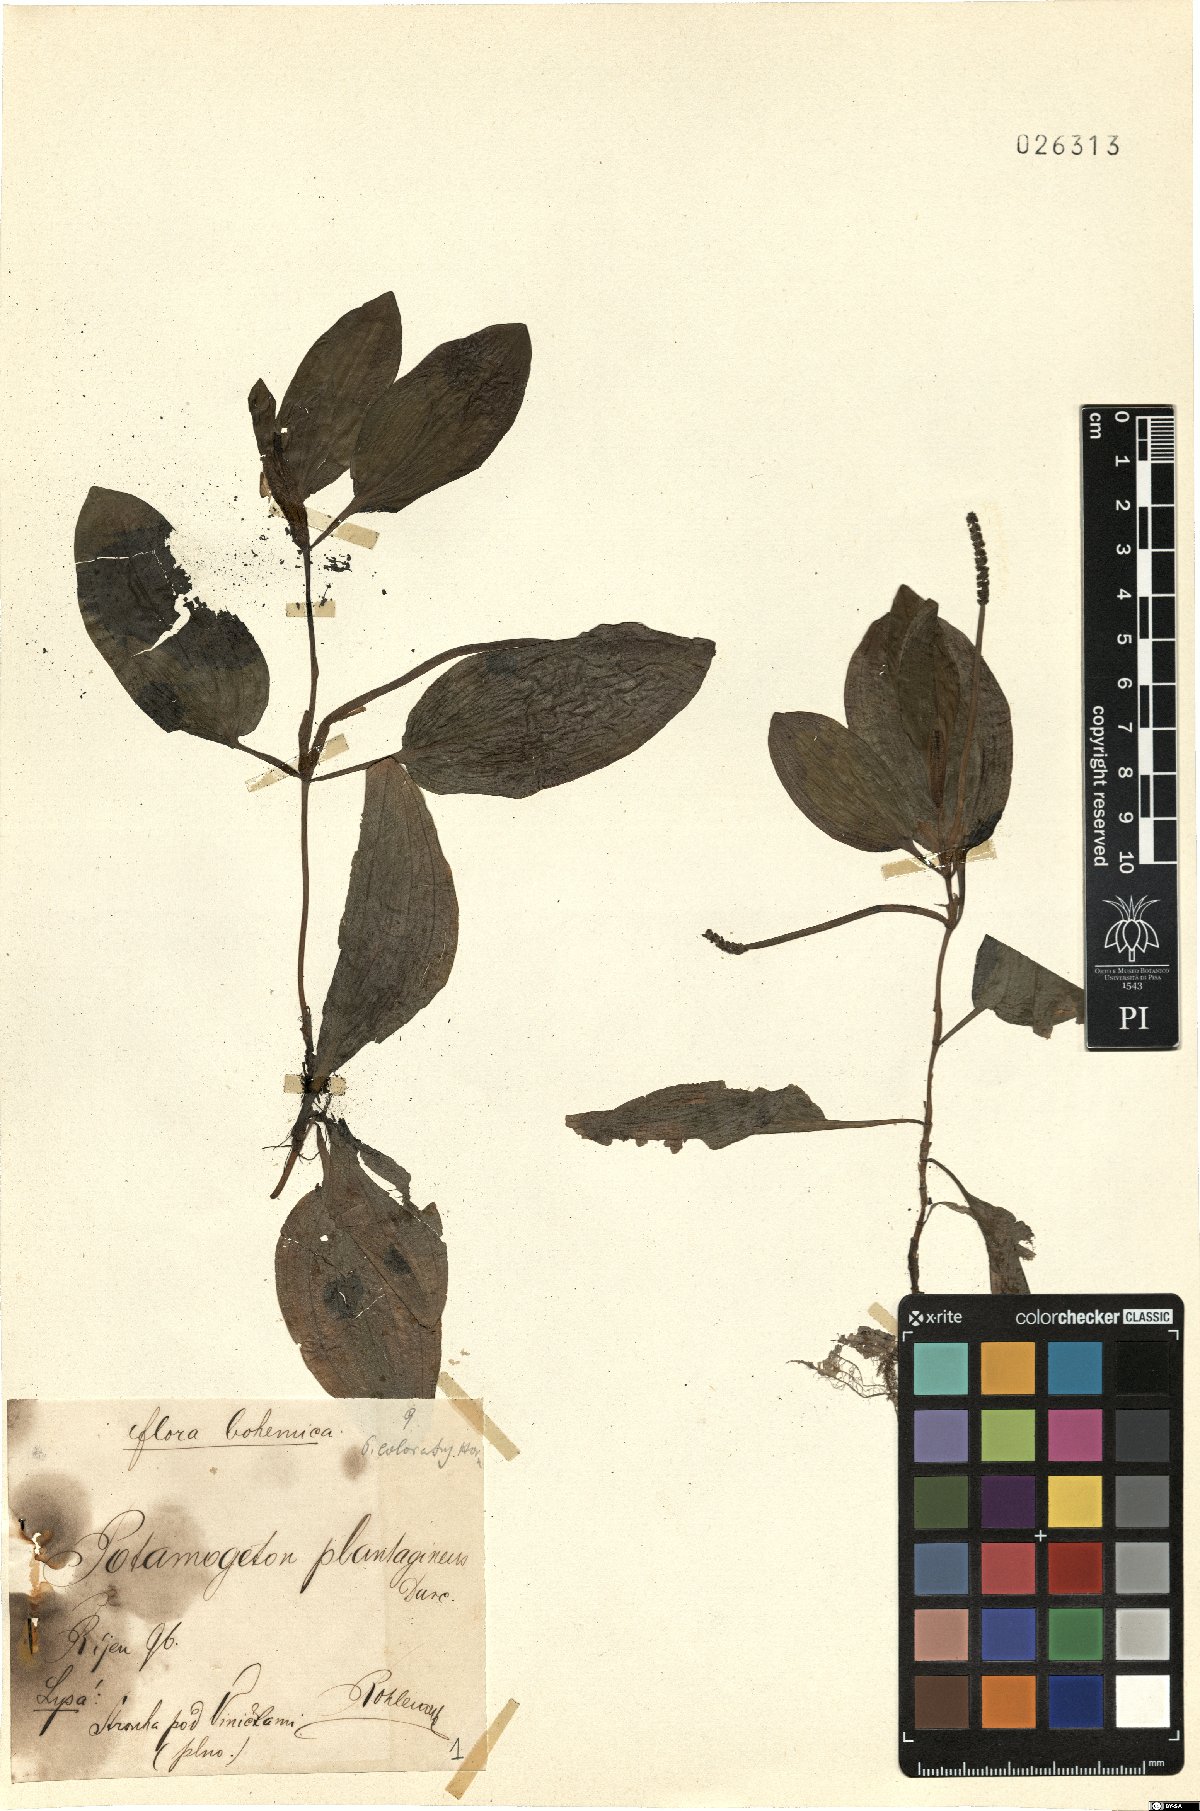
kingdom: Plantae
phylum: Tracheophyta
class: Liliopsida
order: Alismatales
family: Potamogetonaceae
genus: Potamogeton
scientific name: Potamogeton coloratus
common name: Fen pondweed
